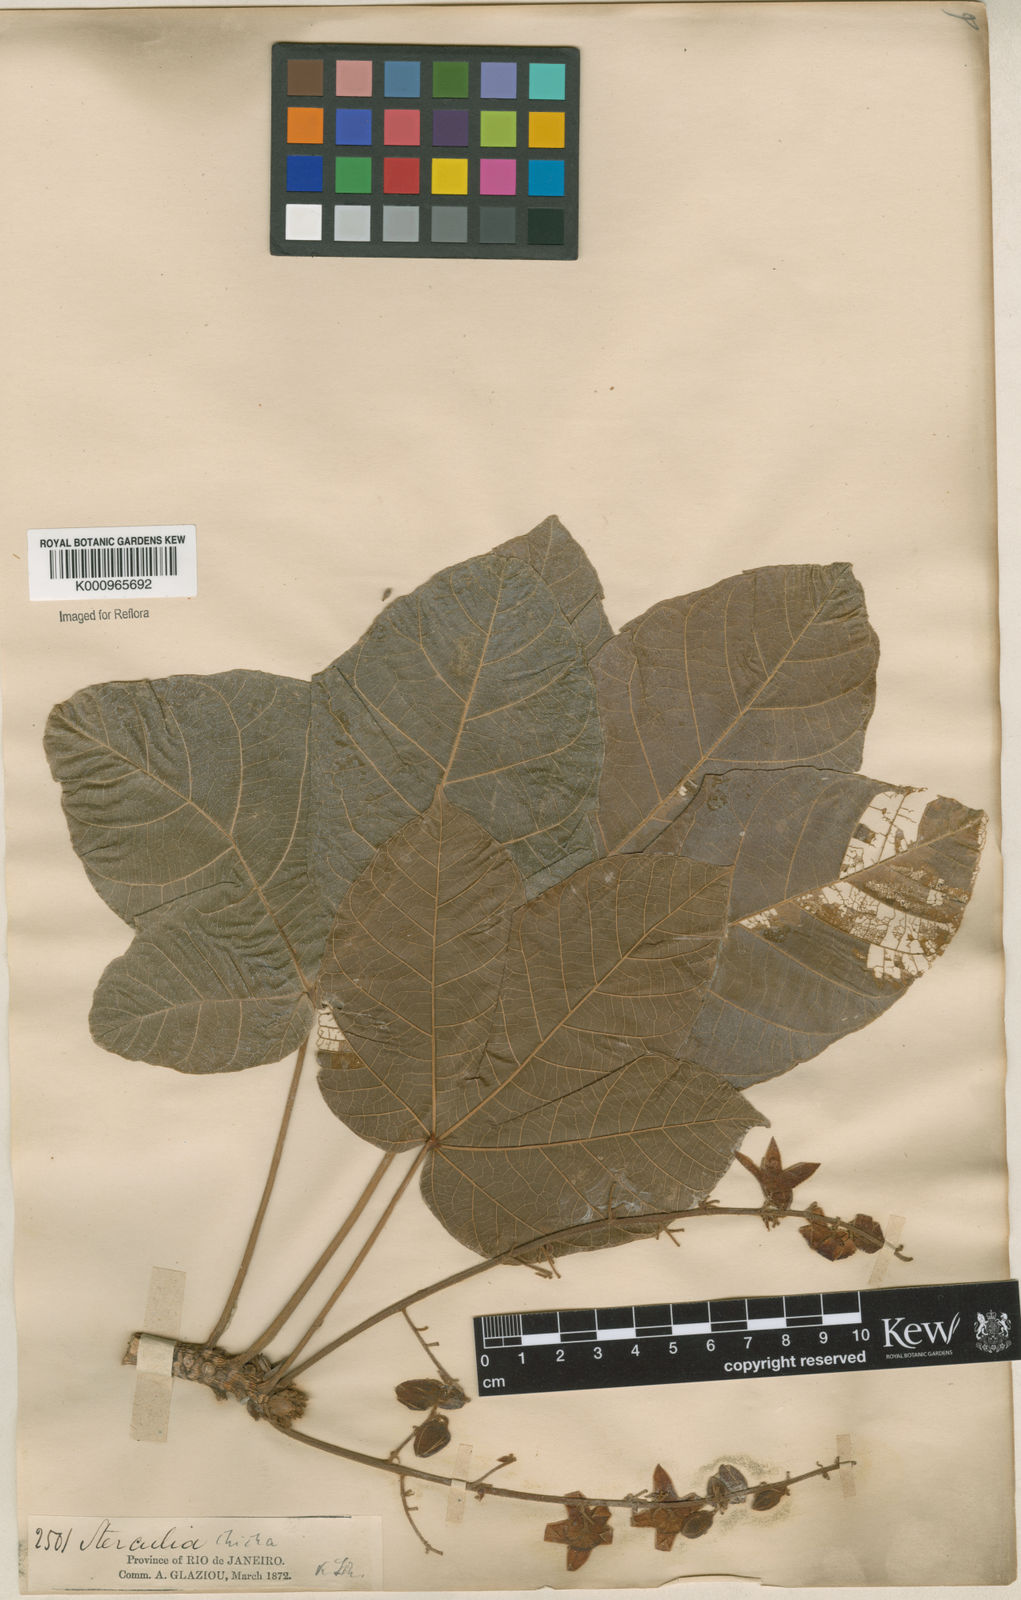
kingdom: Plantae
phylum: Tracheophyta
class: Magnoliopsida
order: Malvales
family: Malvaceae
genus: Sterculia
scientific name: Sterculia apetala
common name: Panama tree
